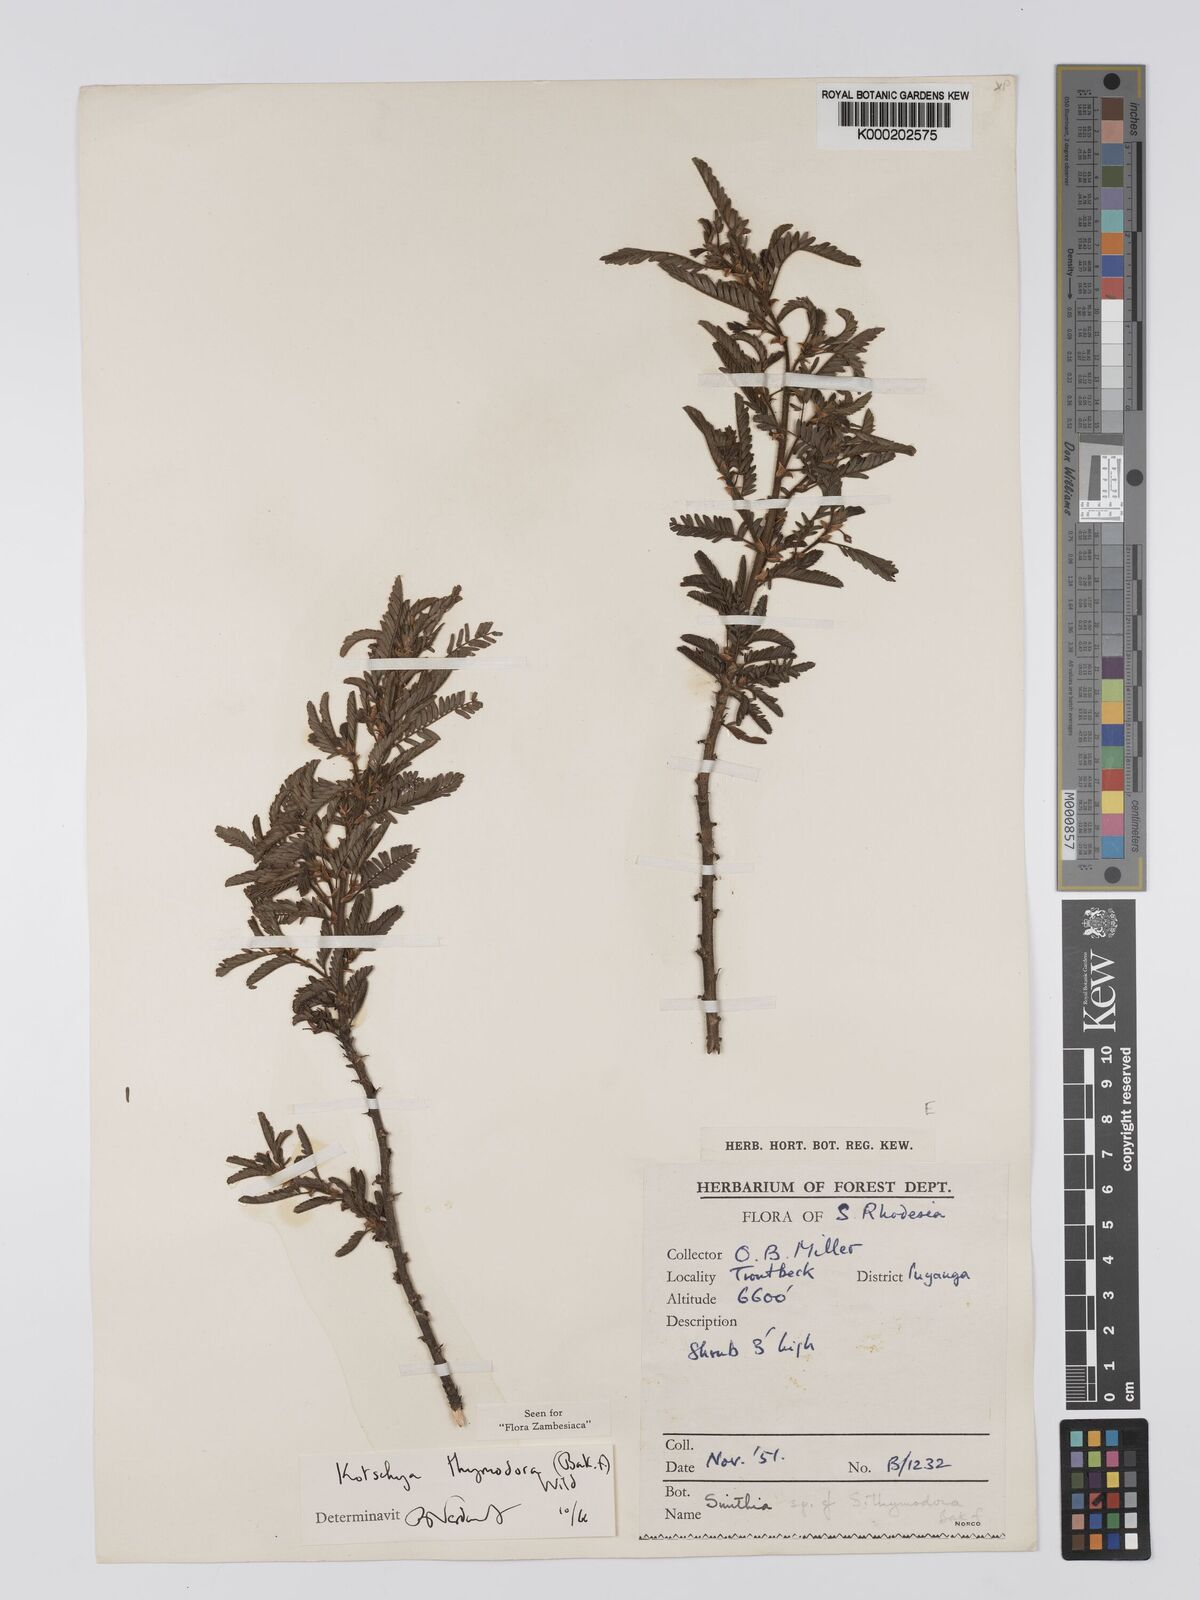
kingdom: Plantae
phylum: Tracheophyta
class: Magnoliopsida
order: Fabales
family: Fabaceae
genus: Kotschya
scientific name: Kotschya thymodora
